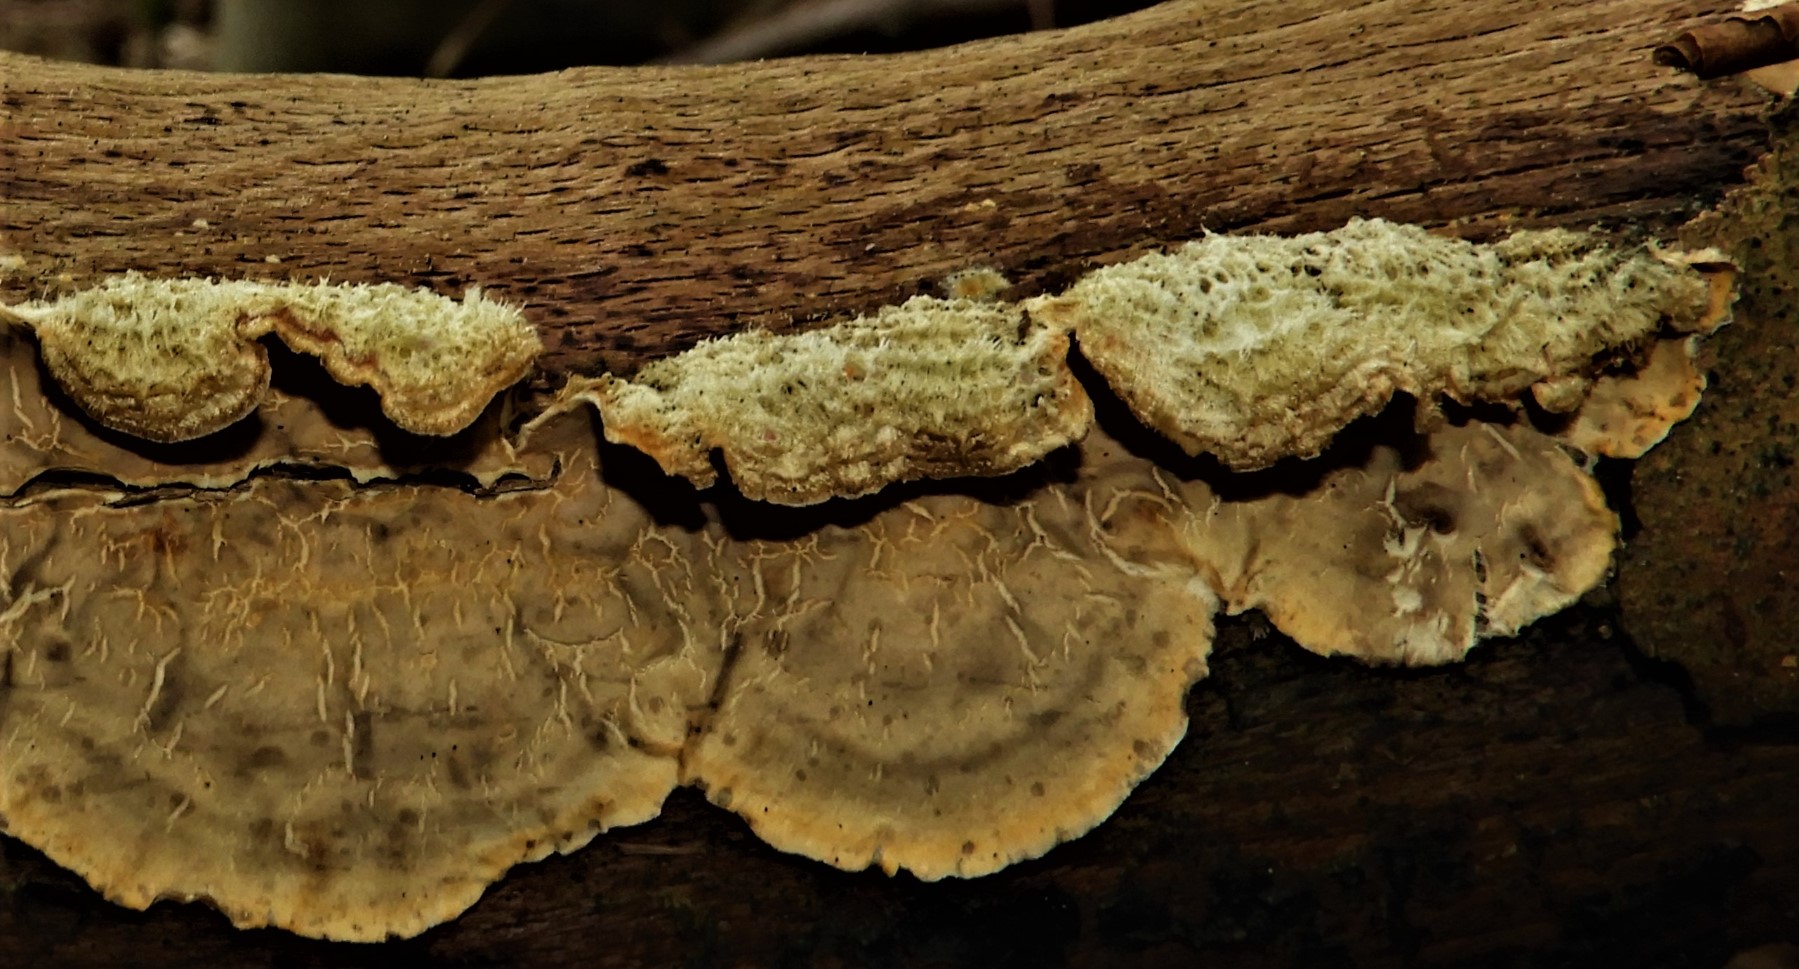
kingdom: Fungi
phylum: Basidiomycota
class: Agaricomycetes
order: Russulales
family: Stereaceae
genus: Stereum
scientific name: Stereum hirsutum
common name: håret lædersvamp
